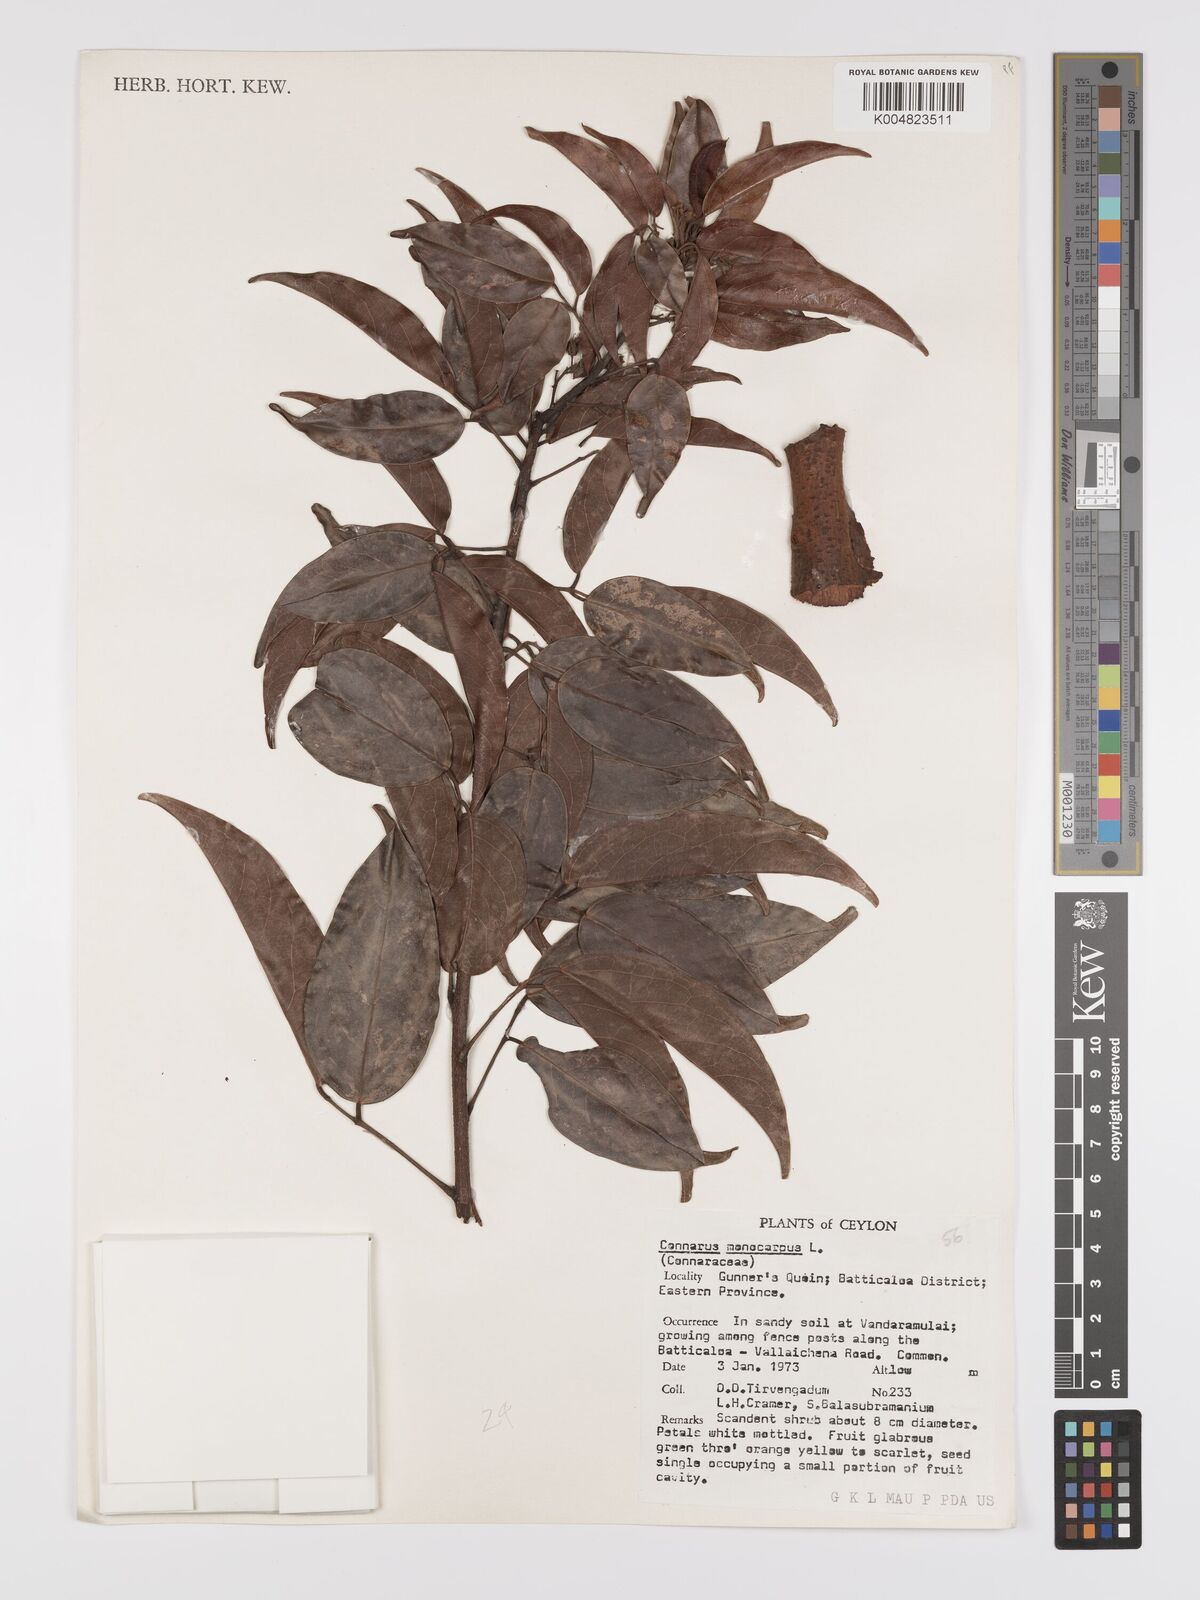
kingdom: Plantae
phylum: Tracheophyta
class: Magnoliopsida
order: Oxalidales
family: Connaraceae
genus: Connarus
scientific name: Connarus semidecandrus
